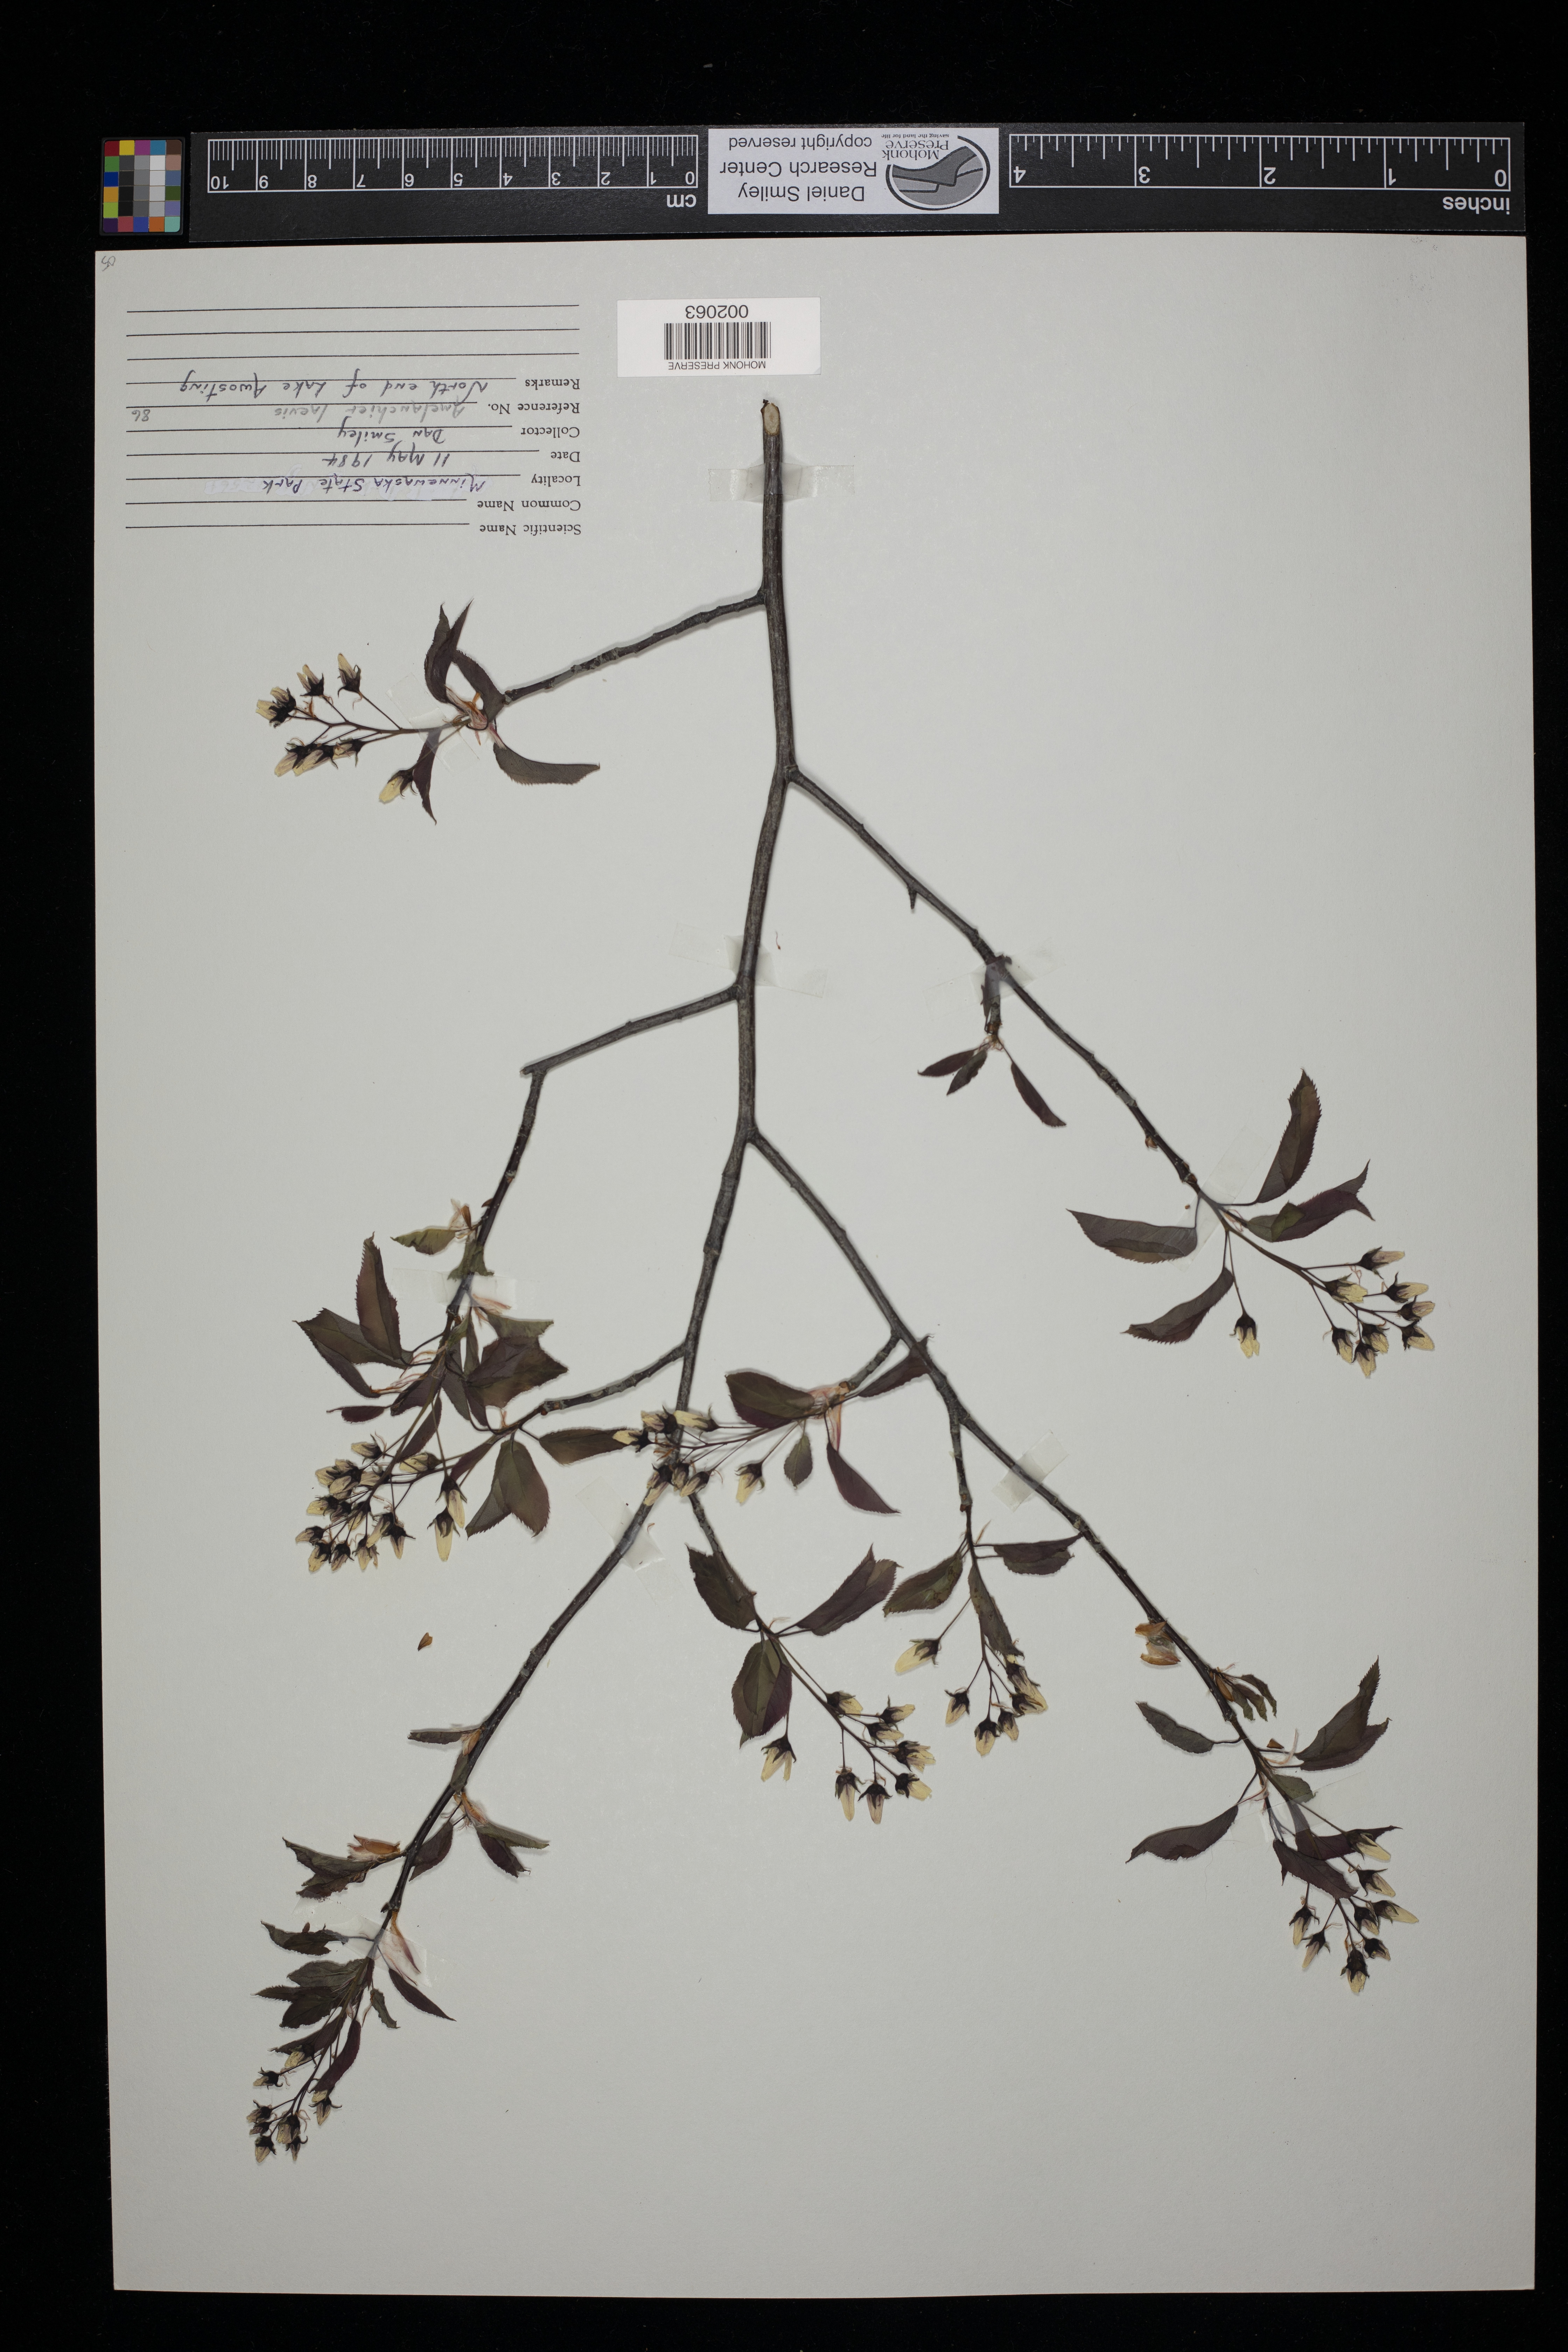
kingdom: Plantae
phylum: Tracheophyta
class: Magnoliopsida
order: Rosales
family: Rosaceae
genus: Amelanchier
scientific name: Amelanchier laevis
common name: Allegheny serviceberry
